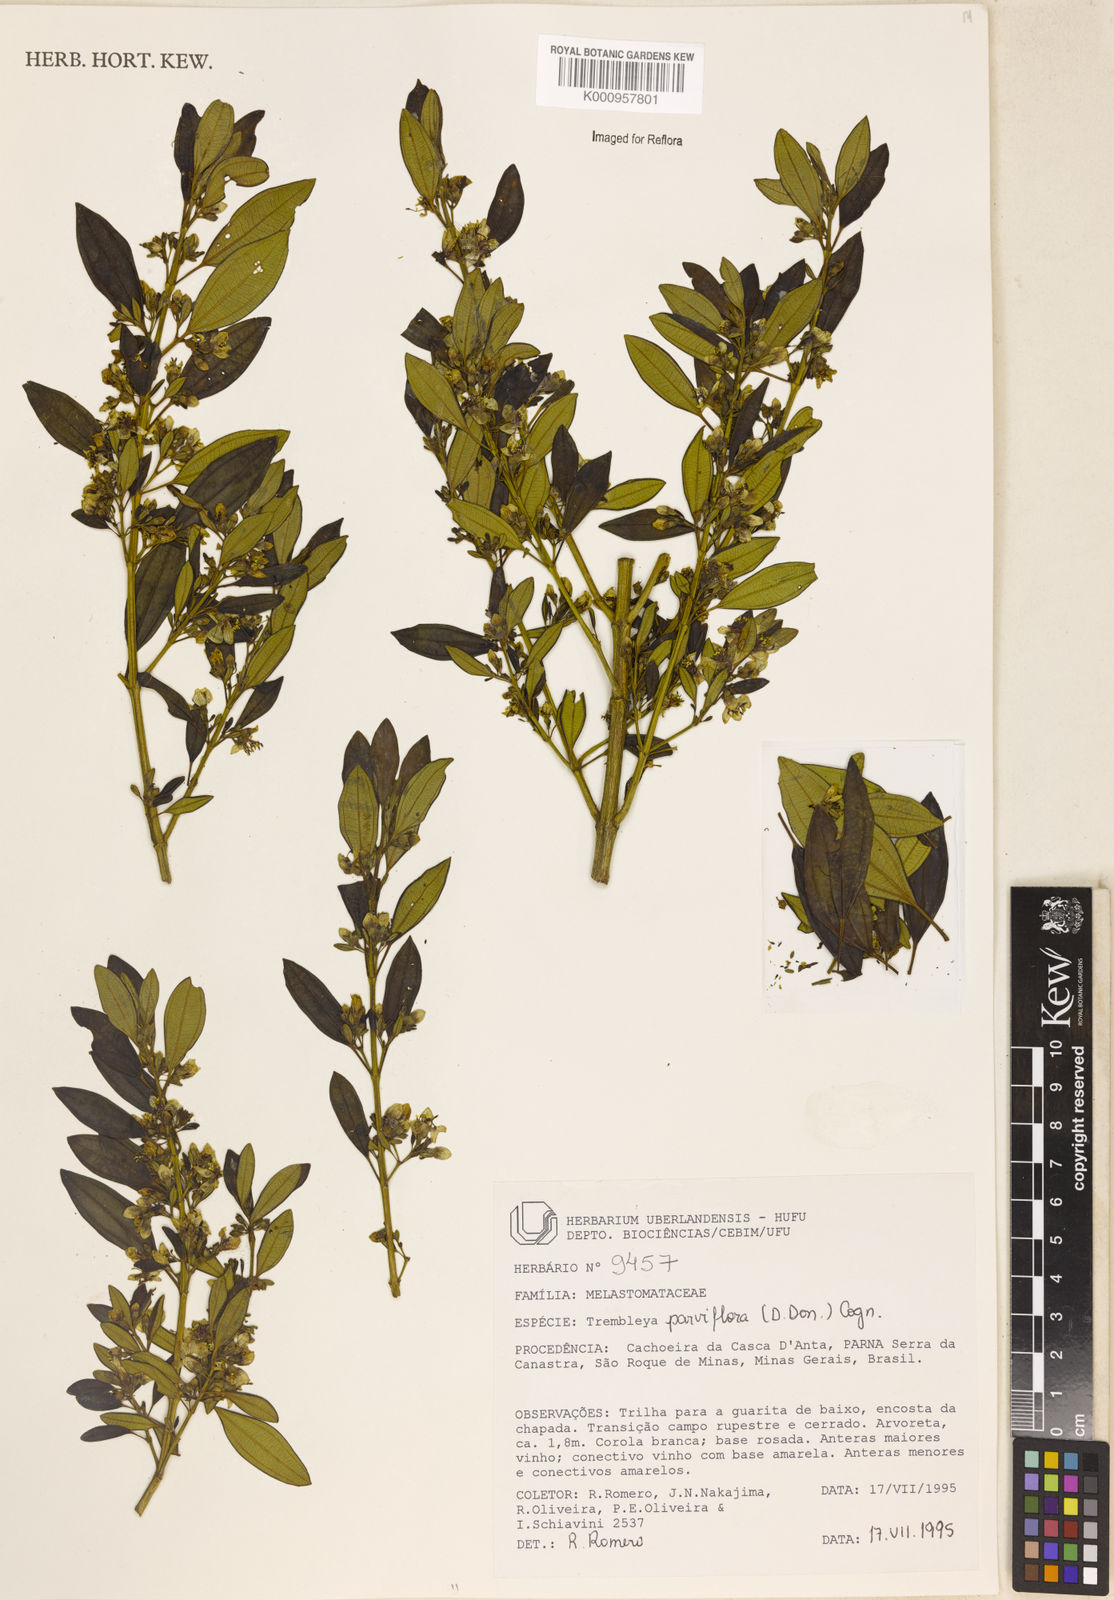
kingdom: Plantae
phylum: Tracheophyta
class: Magnoliopsida
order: Myrtales
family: Melastomataceae
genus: Microlicia
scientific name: Microlicia parviflora
